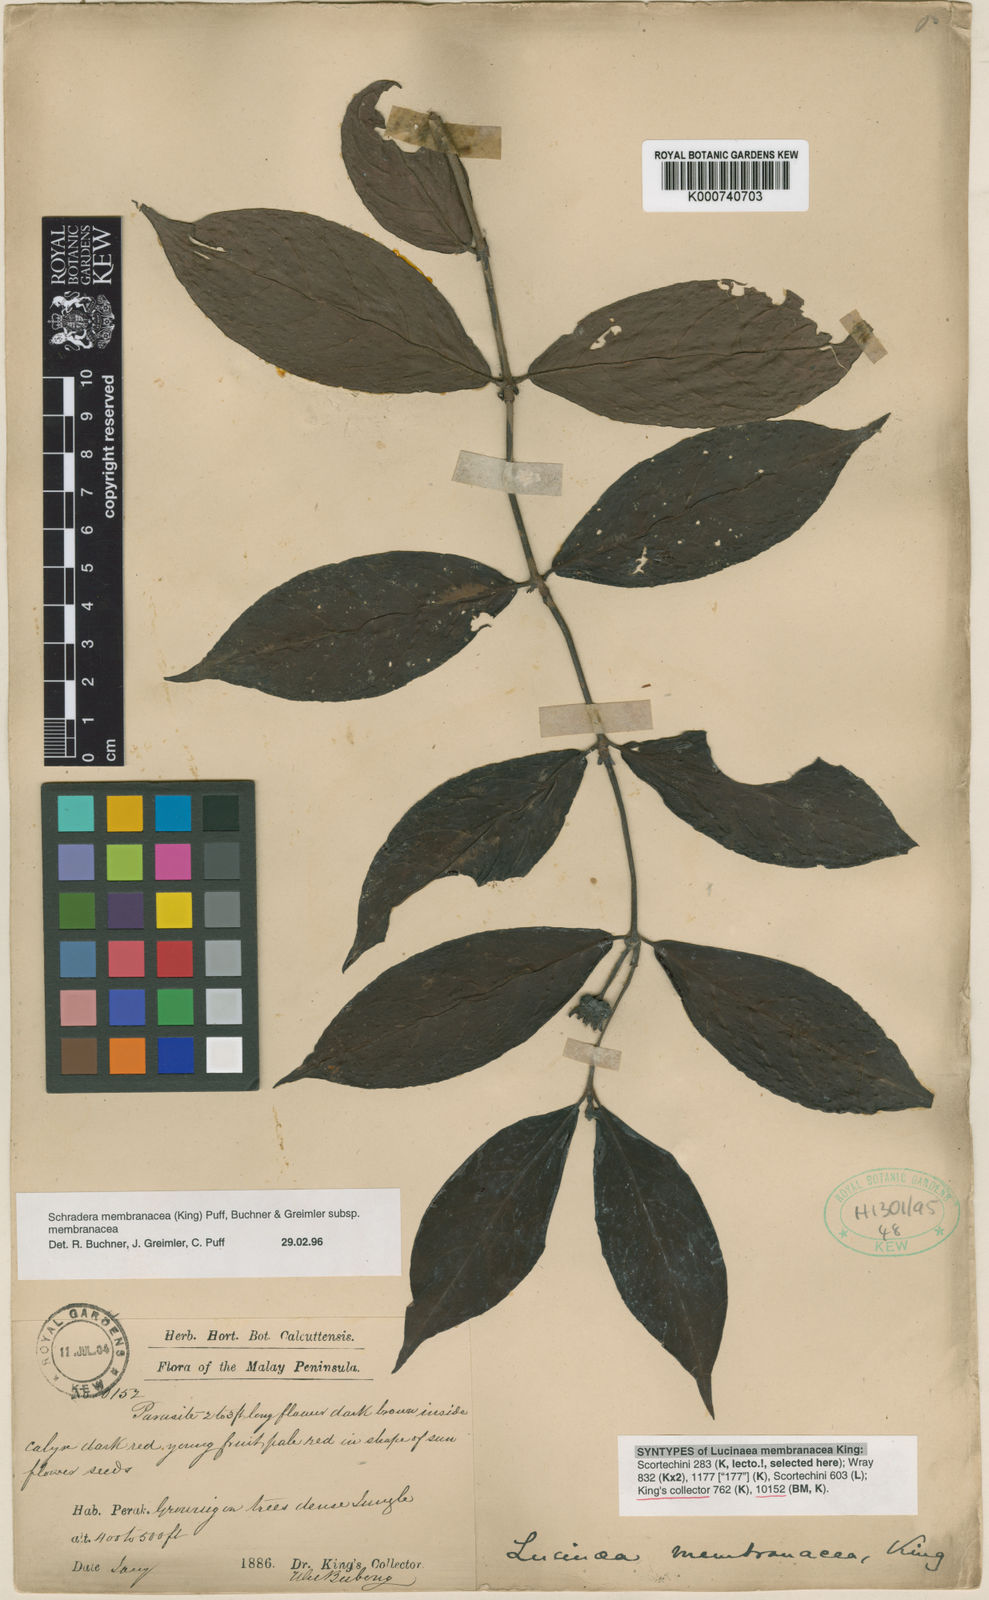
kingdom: Plantae
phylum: Tracheophyta
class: Magnoliopsida
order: Gentianales
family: Rubiaceae
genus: Schradera
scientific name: Schradera membranacea
